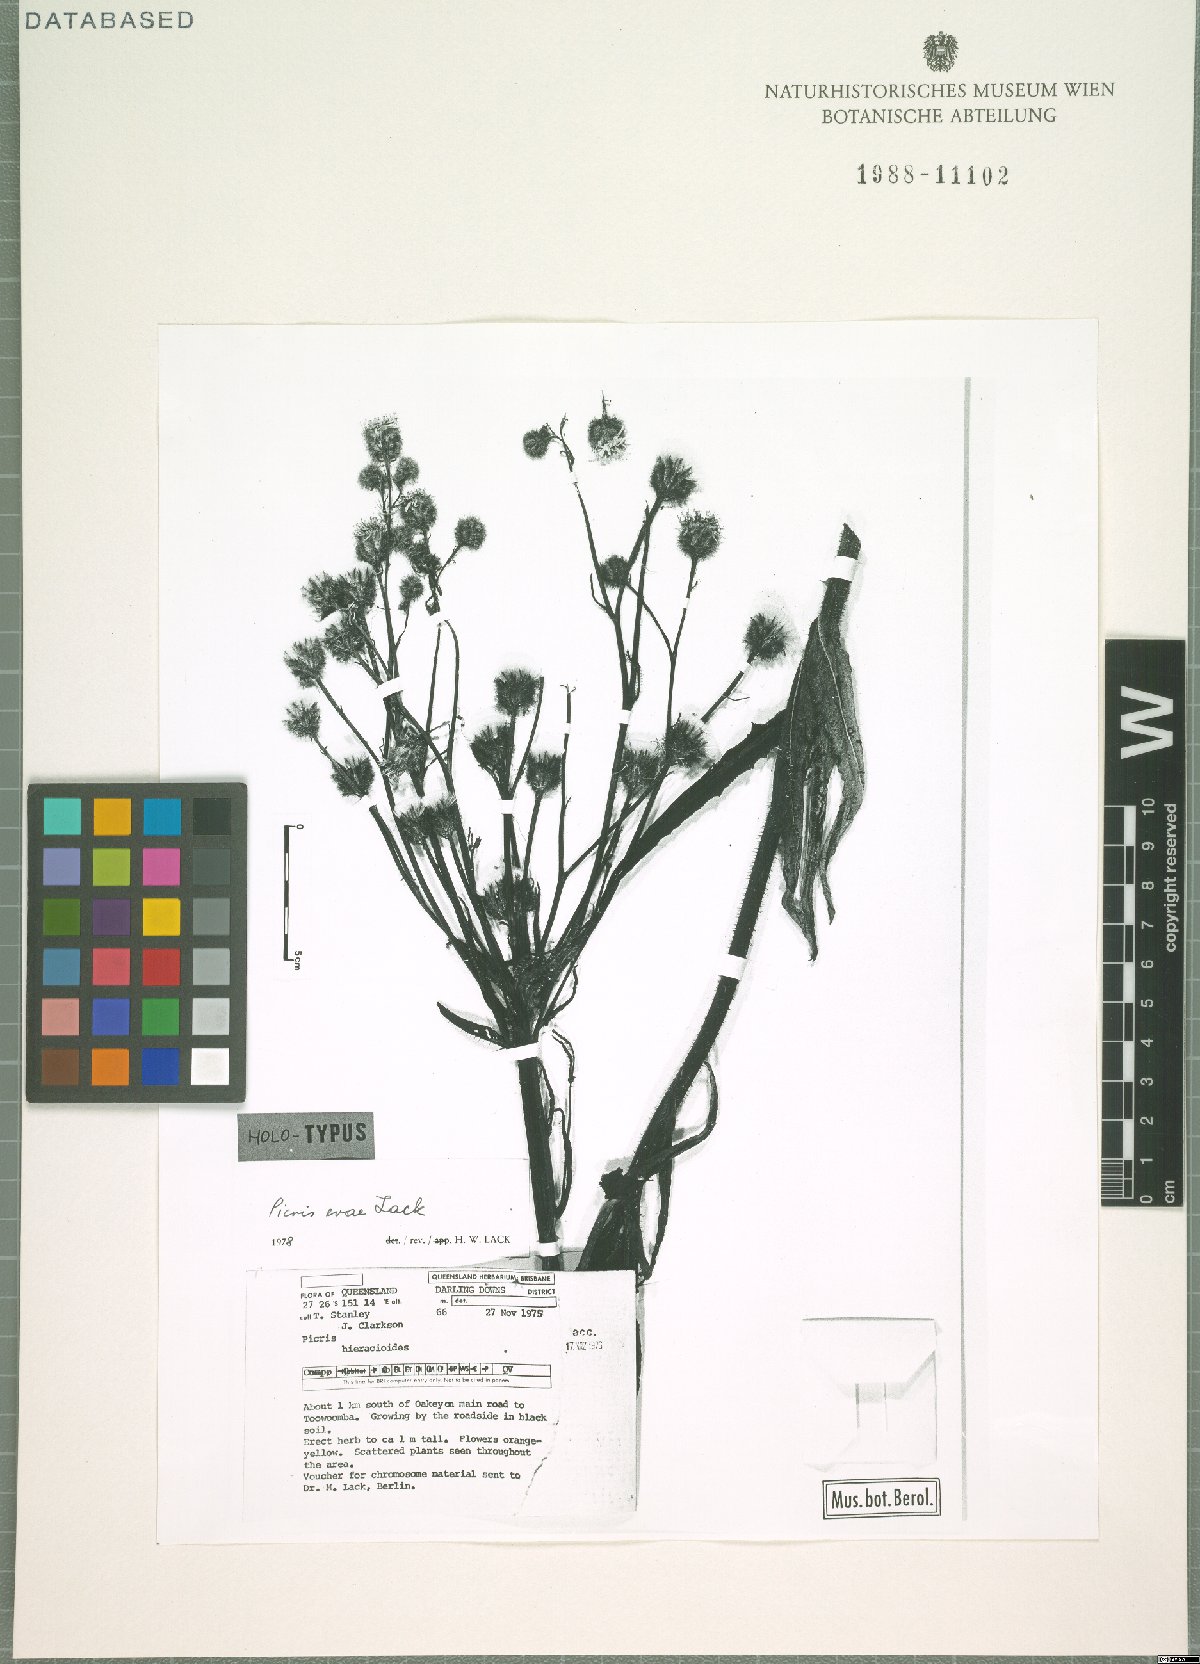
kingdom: Plantae
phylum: Tracheophyta
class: Magnoliopsida
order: Asterales
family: Asteraceae
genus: Picris
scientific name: Picris evae
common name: Hawkweed
